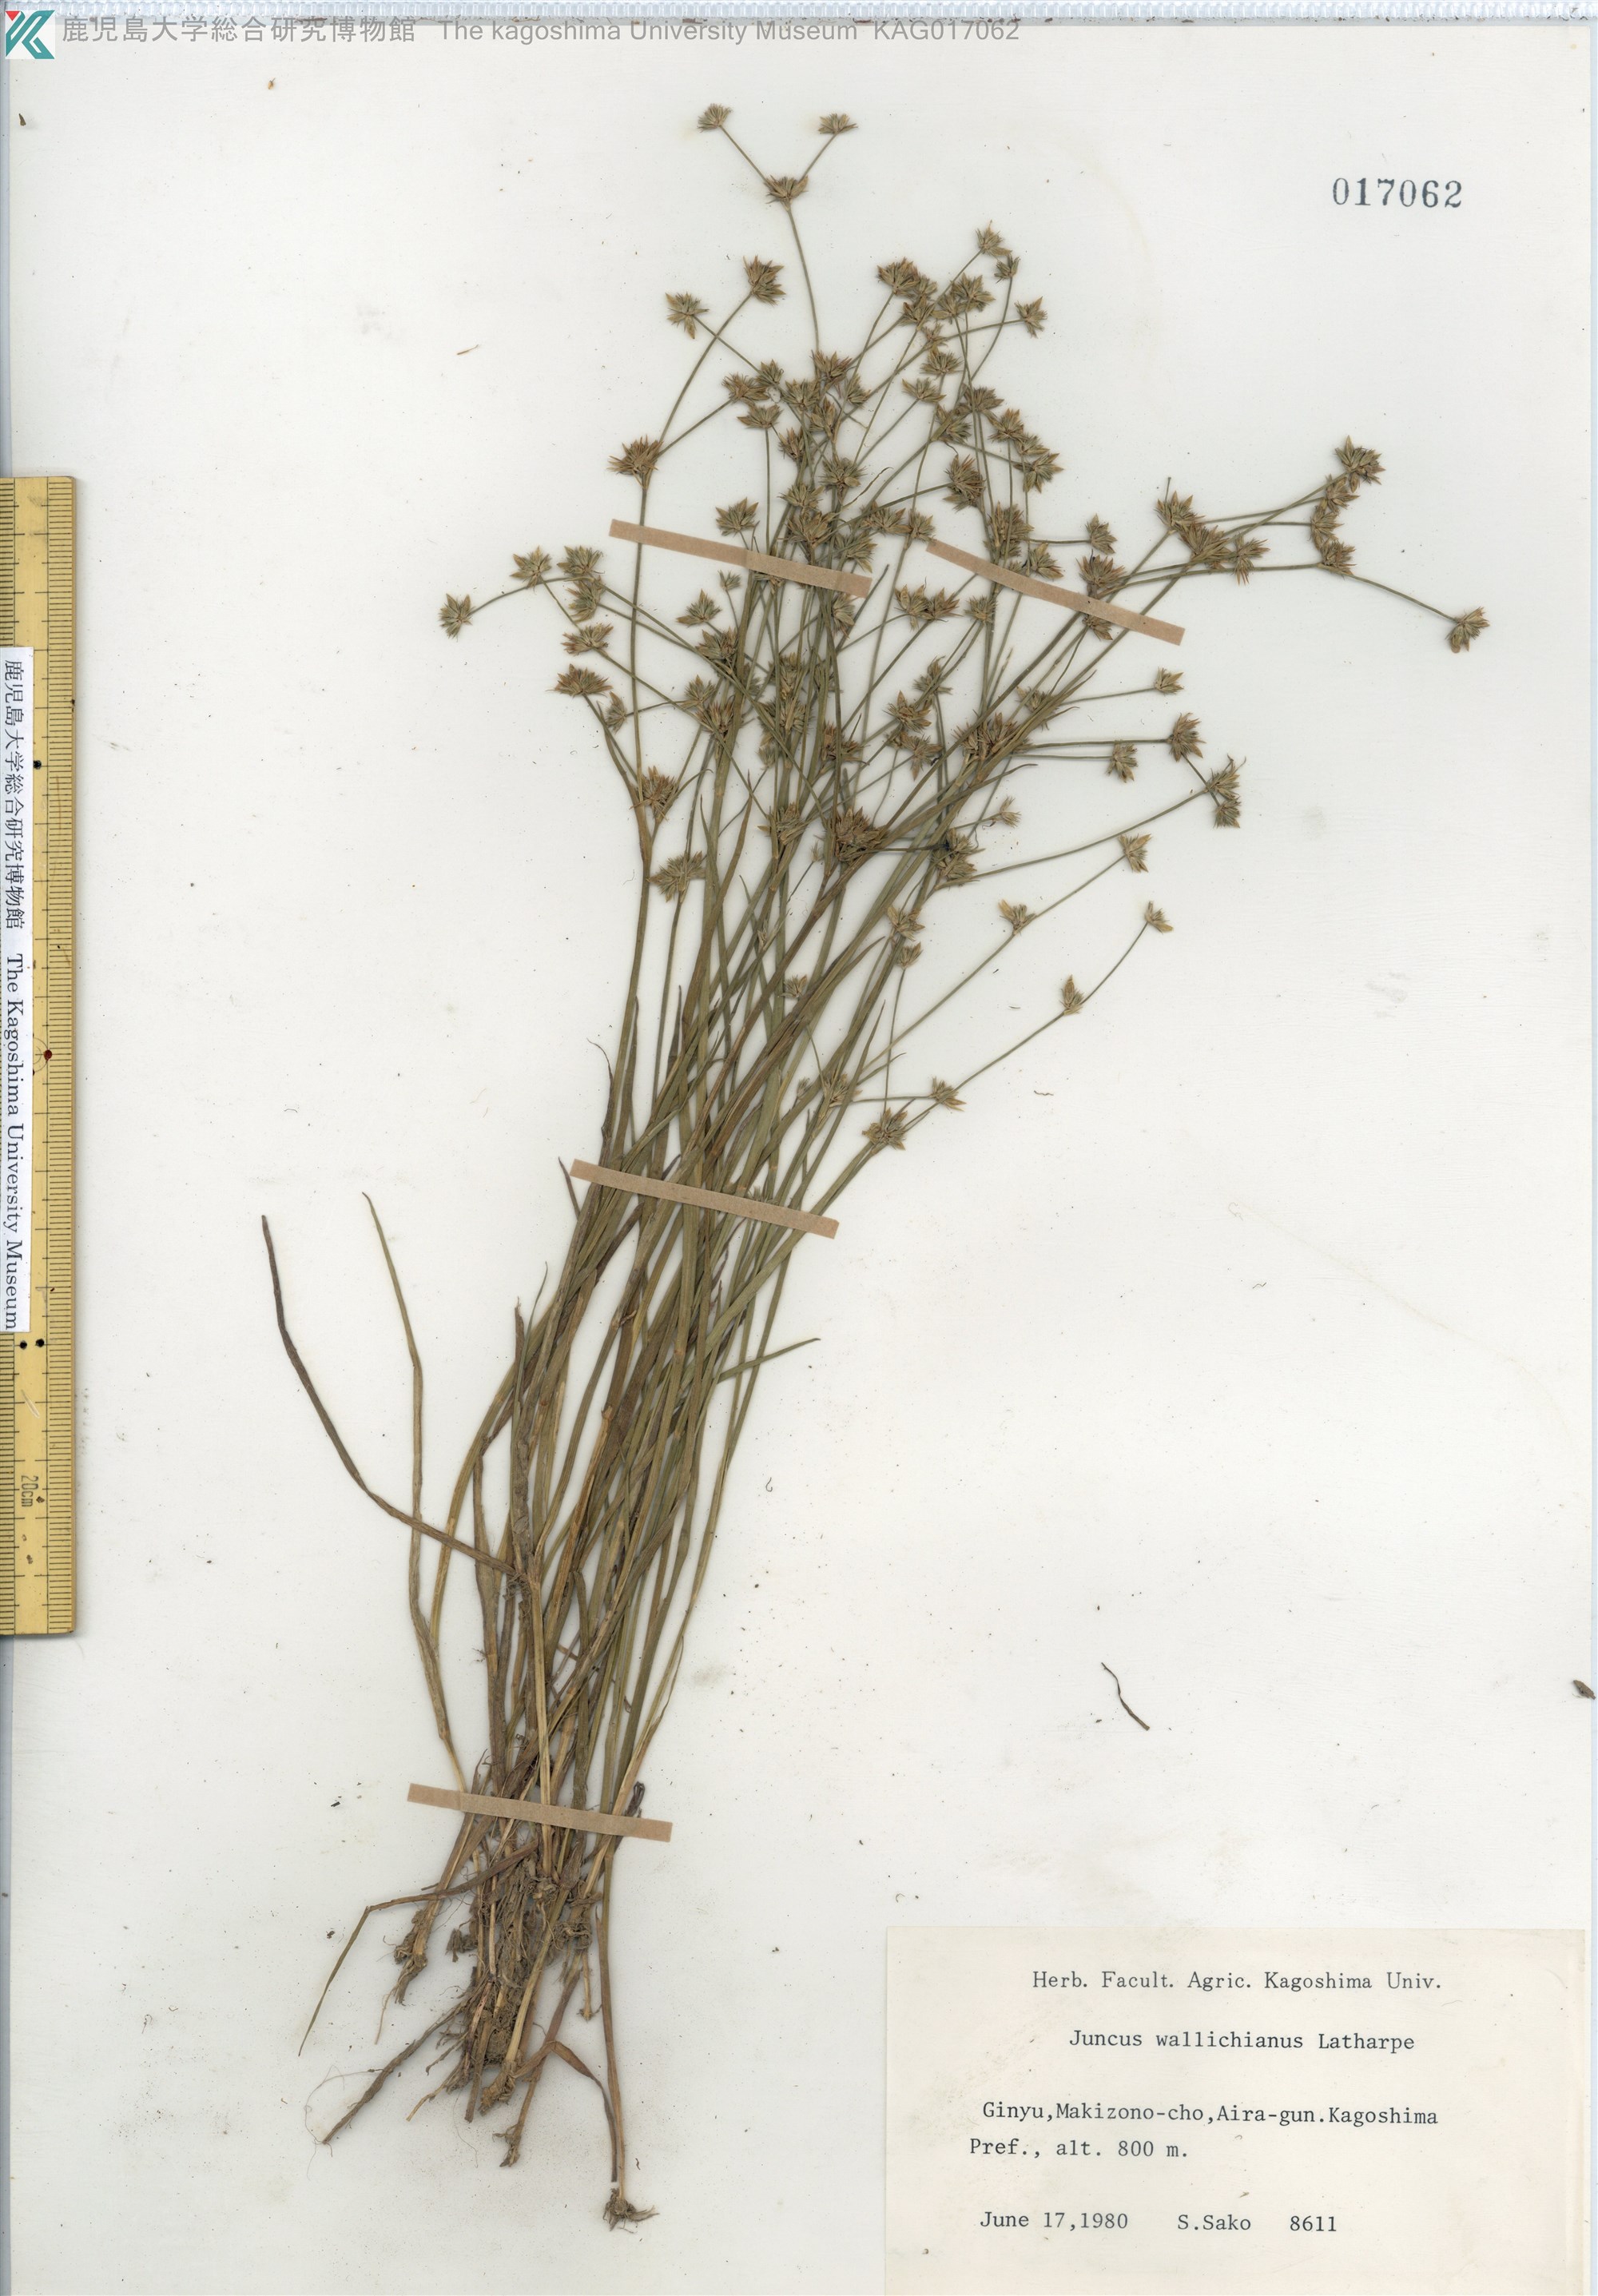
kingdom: Plantae
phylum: Tracheophyta
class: Liliopsida
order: Poales
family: Juncaceae
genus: Juncus
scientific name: Juncus prismatocarpus
